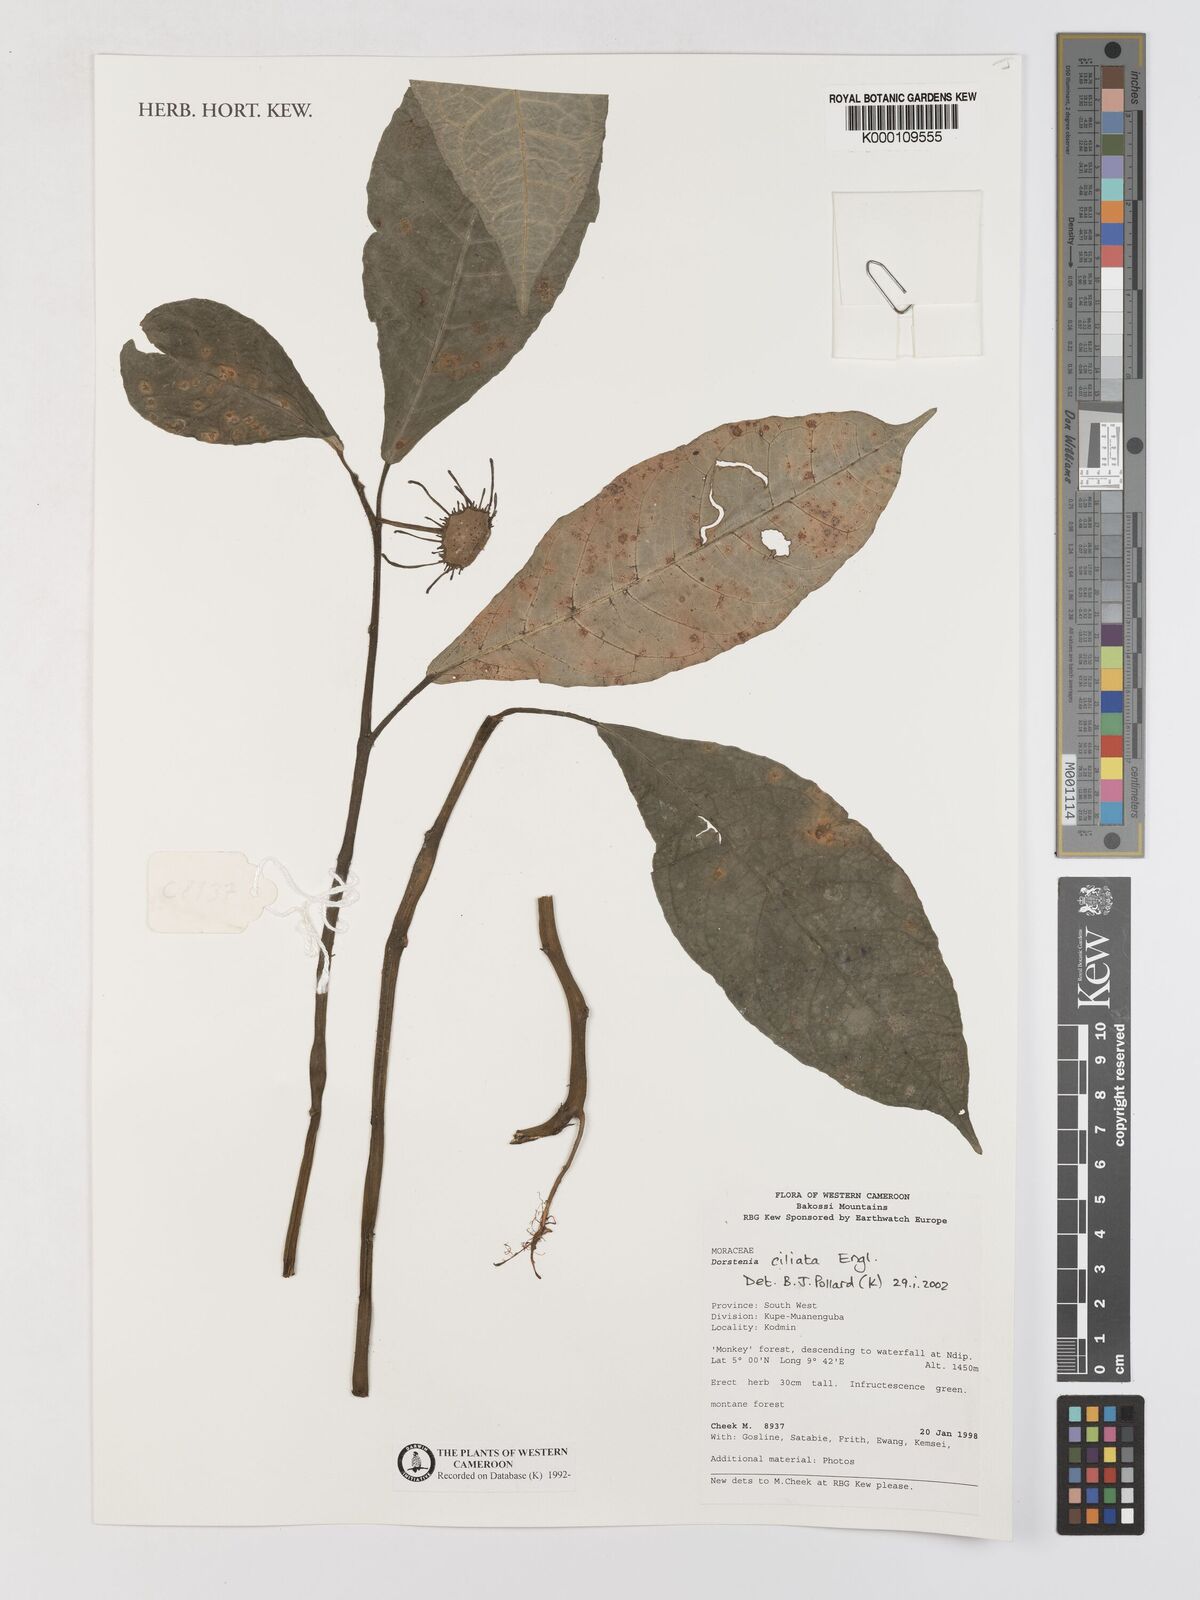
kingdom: Plantae
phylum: Tracheophyta
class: Magnoliopsida
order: Rosales
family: Moraceae
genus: Dorstenia
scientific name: Dorstenia ciliata
